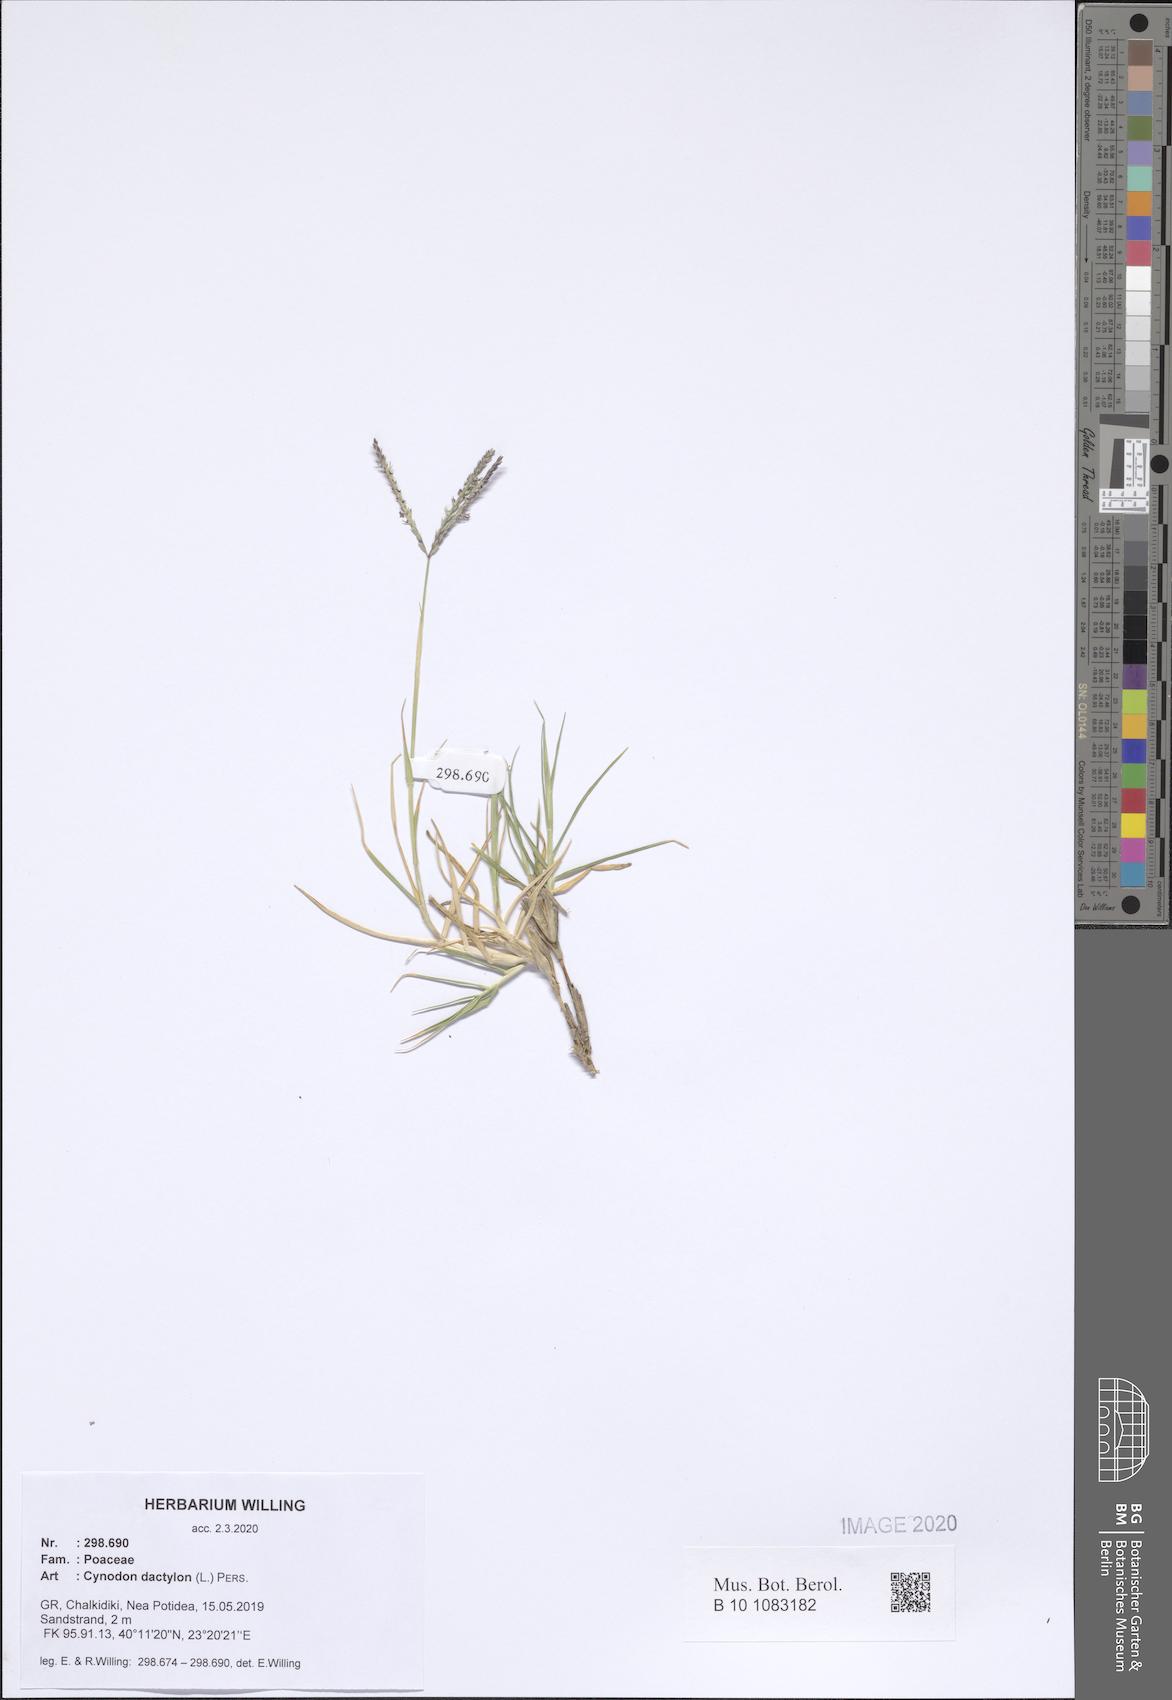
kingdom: Plantae
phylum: Tracheophyta
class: Liliopsida
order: Poales
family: Poaceae
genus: Cynodon
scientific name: Cynodon dactylon
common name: Bermuda grass
